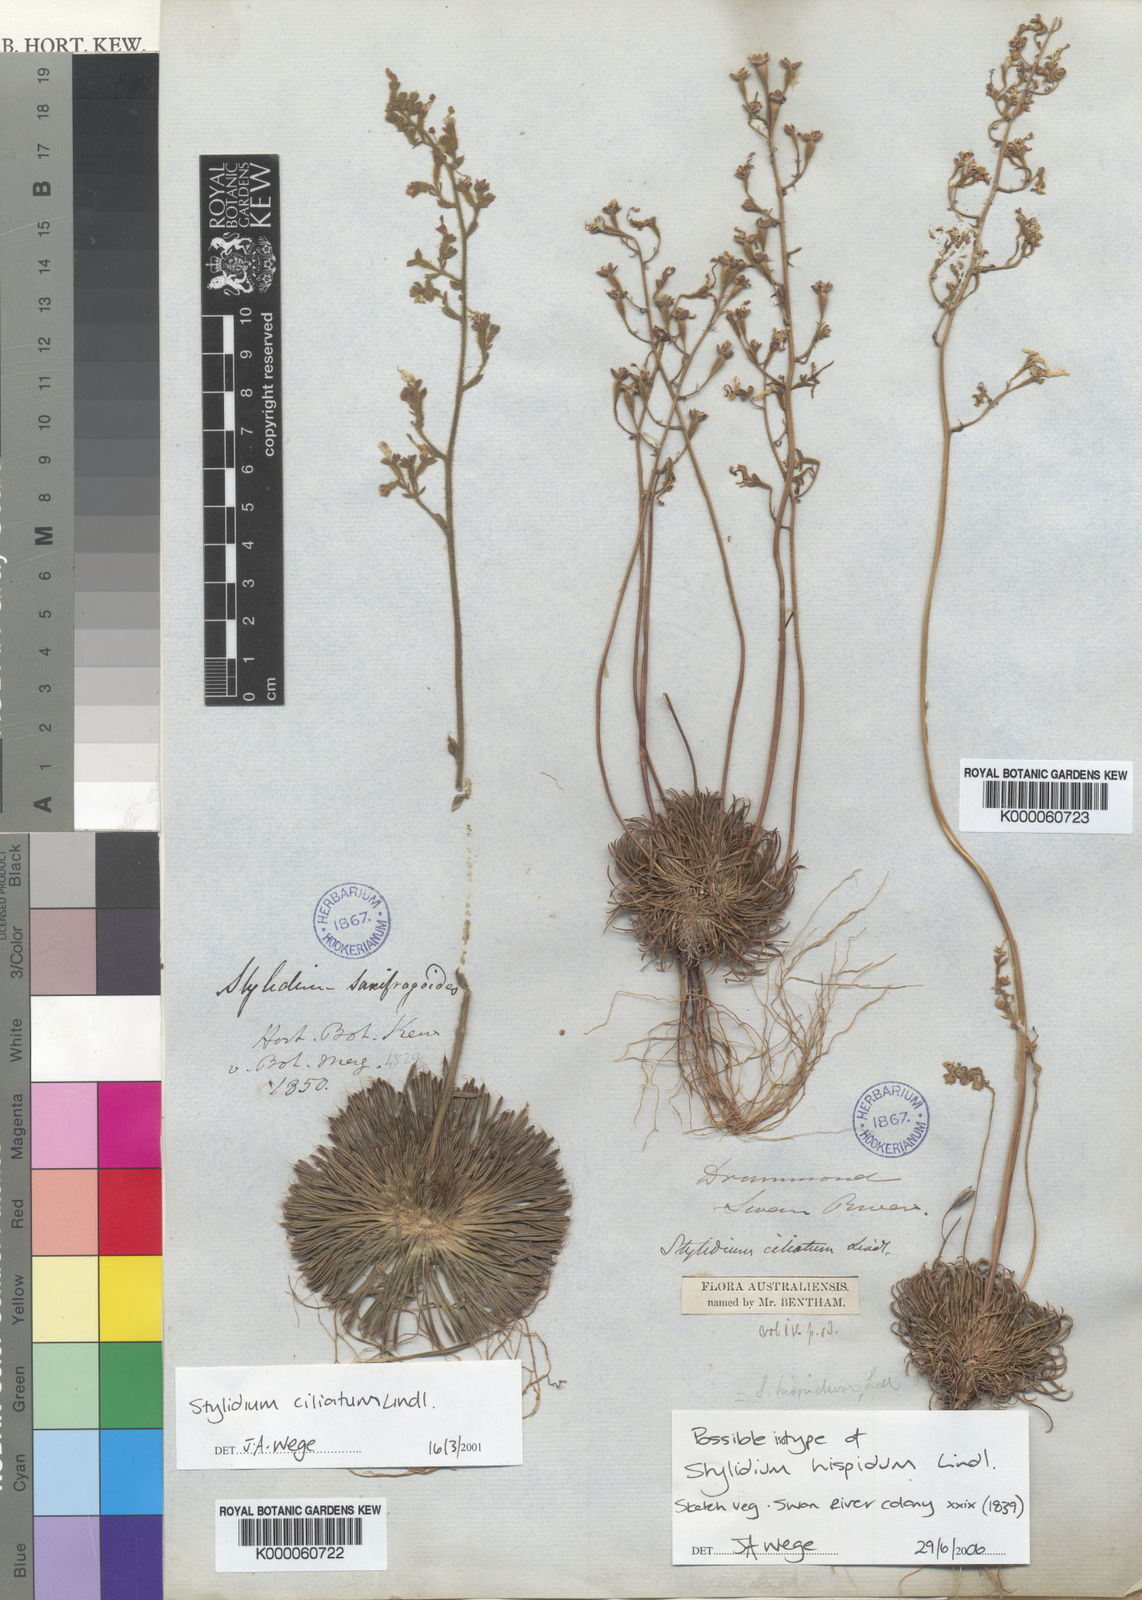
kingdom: Plantae
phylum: Tracheophyta
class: Magnoliopsida
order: Asterales
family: Stylidiaceae
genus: Stylidium
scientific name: Stylidium ciliatum
